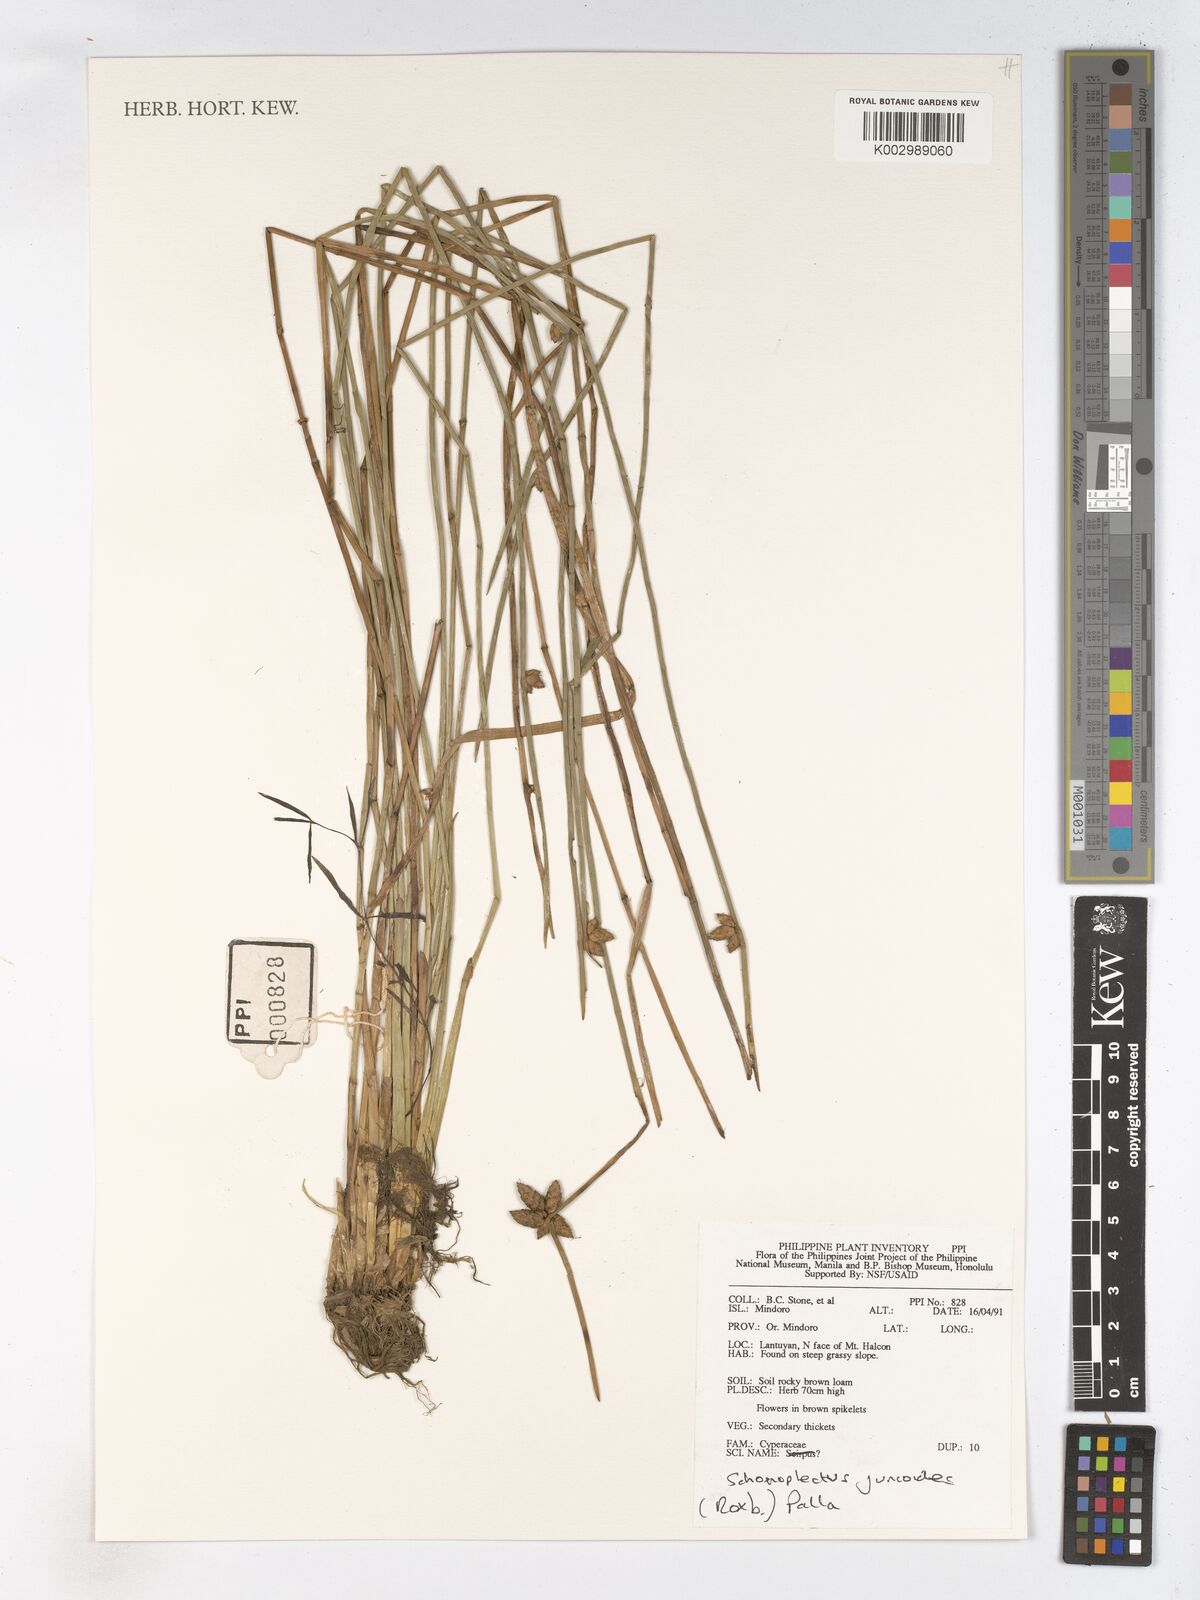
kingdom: Plantae
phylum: Tracheophyta
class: Liliopsida
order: Poales
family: Cyperaceae
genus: Schoenoplectiella
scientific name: Schoenoplectiella juncoides
